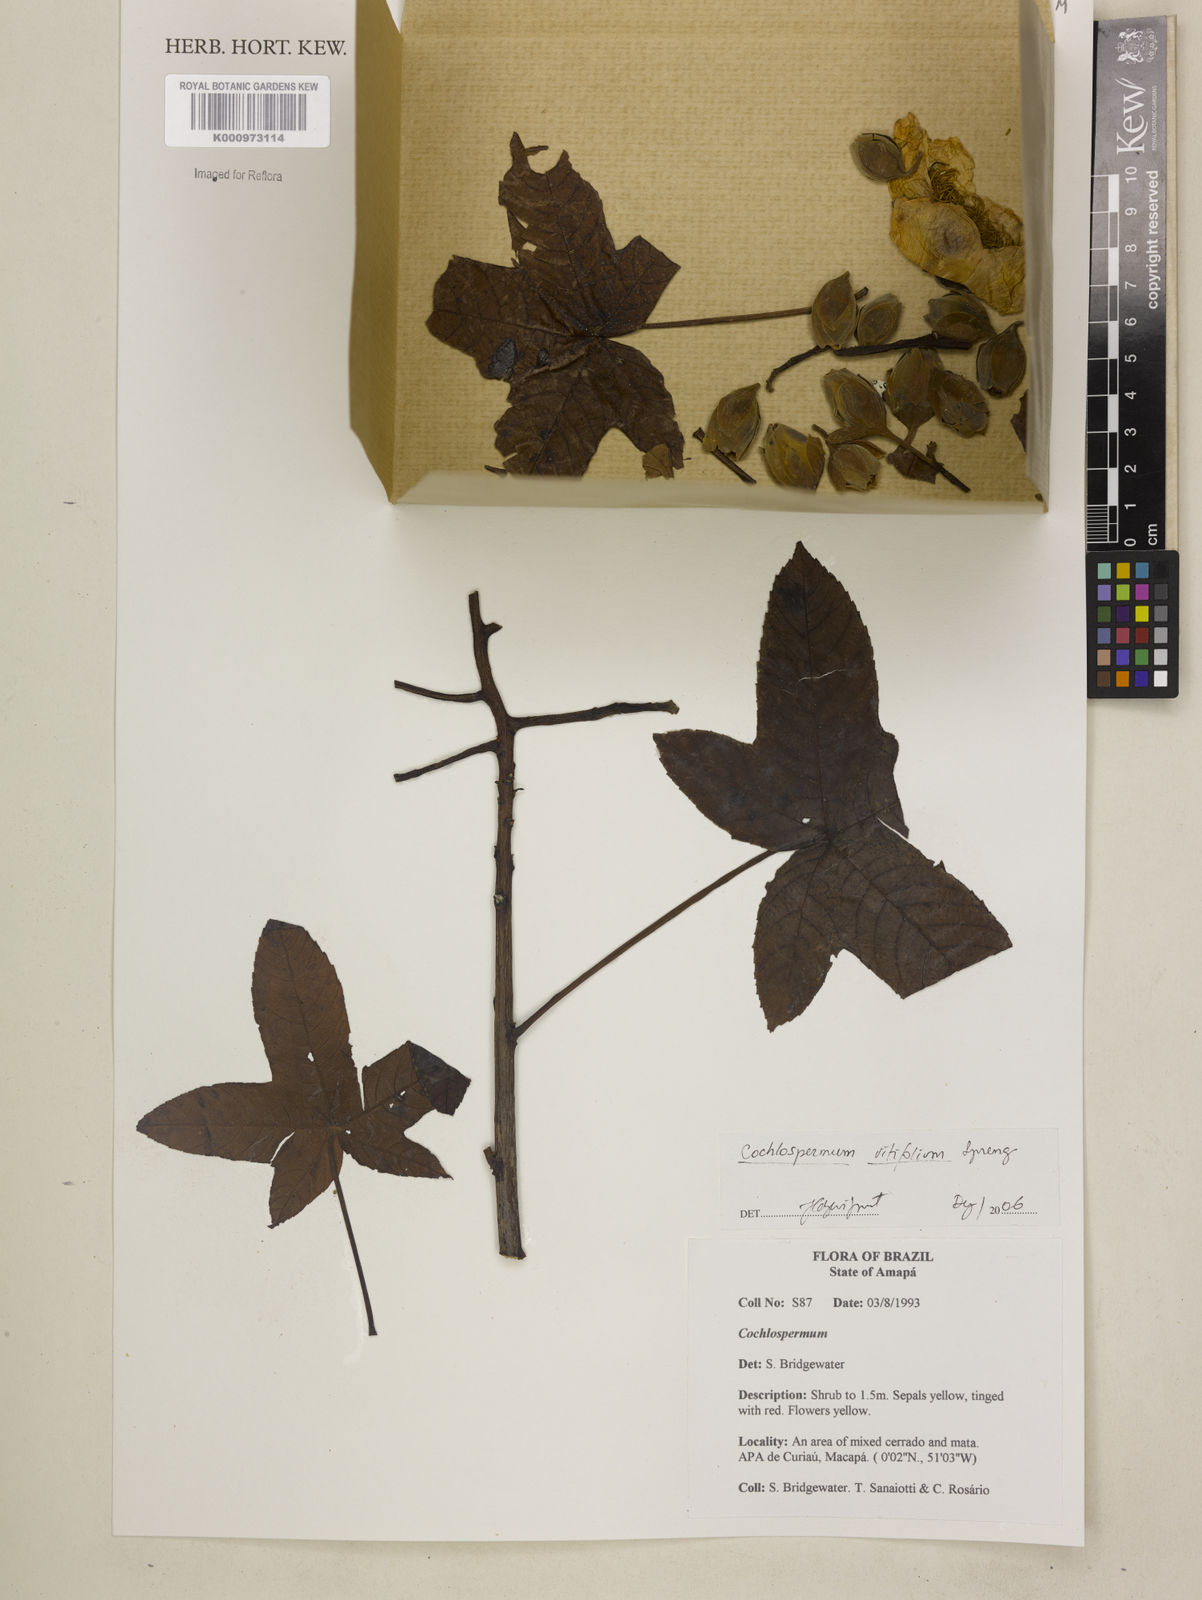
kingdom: Plantae
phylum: Tracheophyta
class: Magnoliopsida
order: Malvales
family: Cochlospermaceae
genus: Cochlospermum
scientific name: Cochlospermum regium
